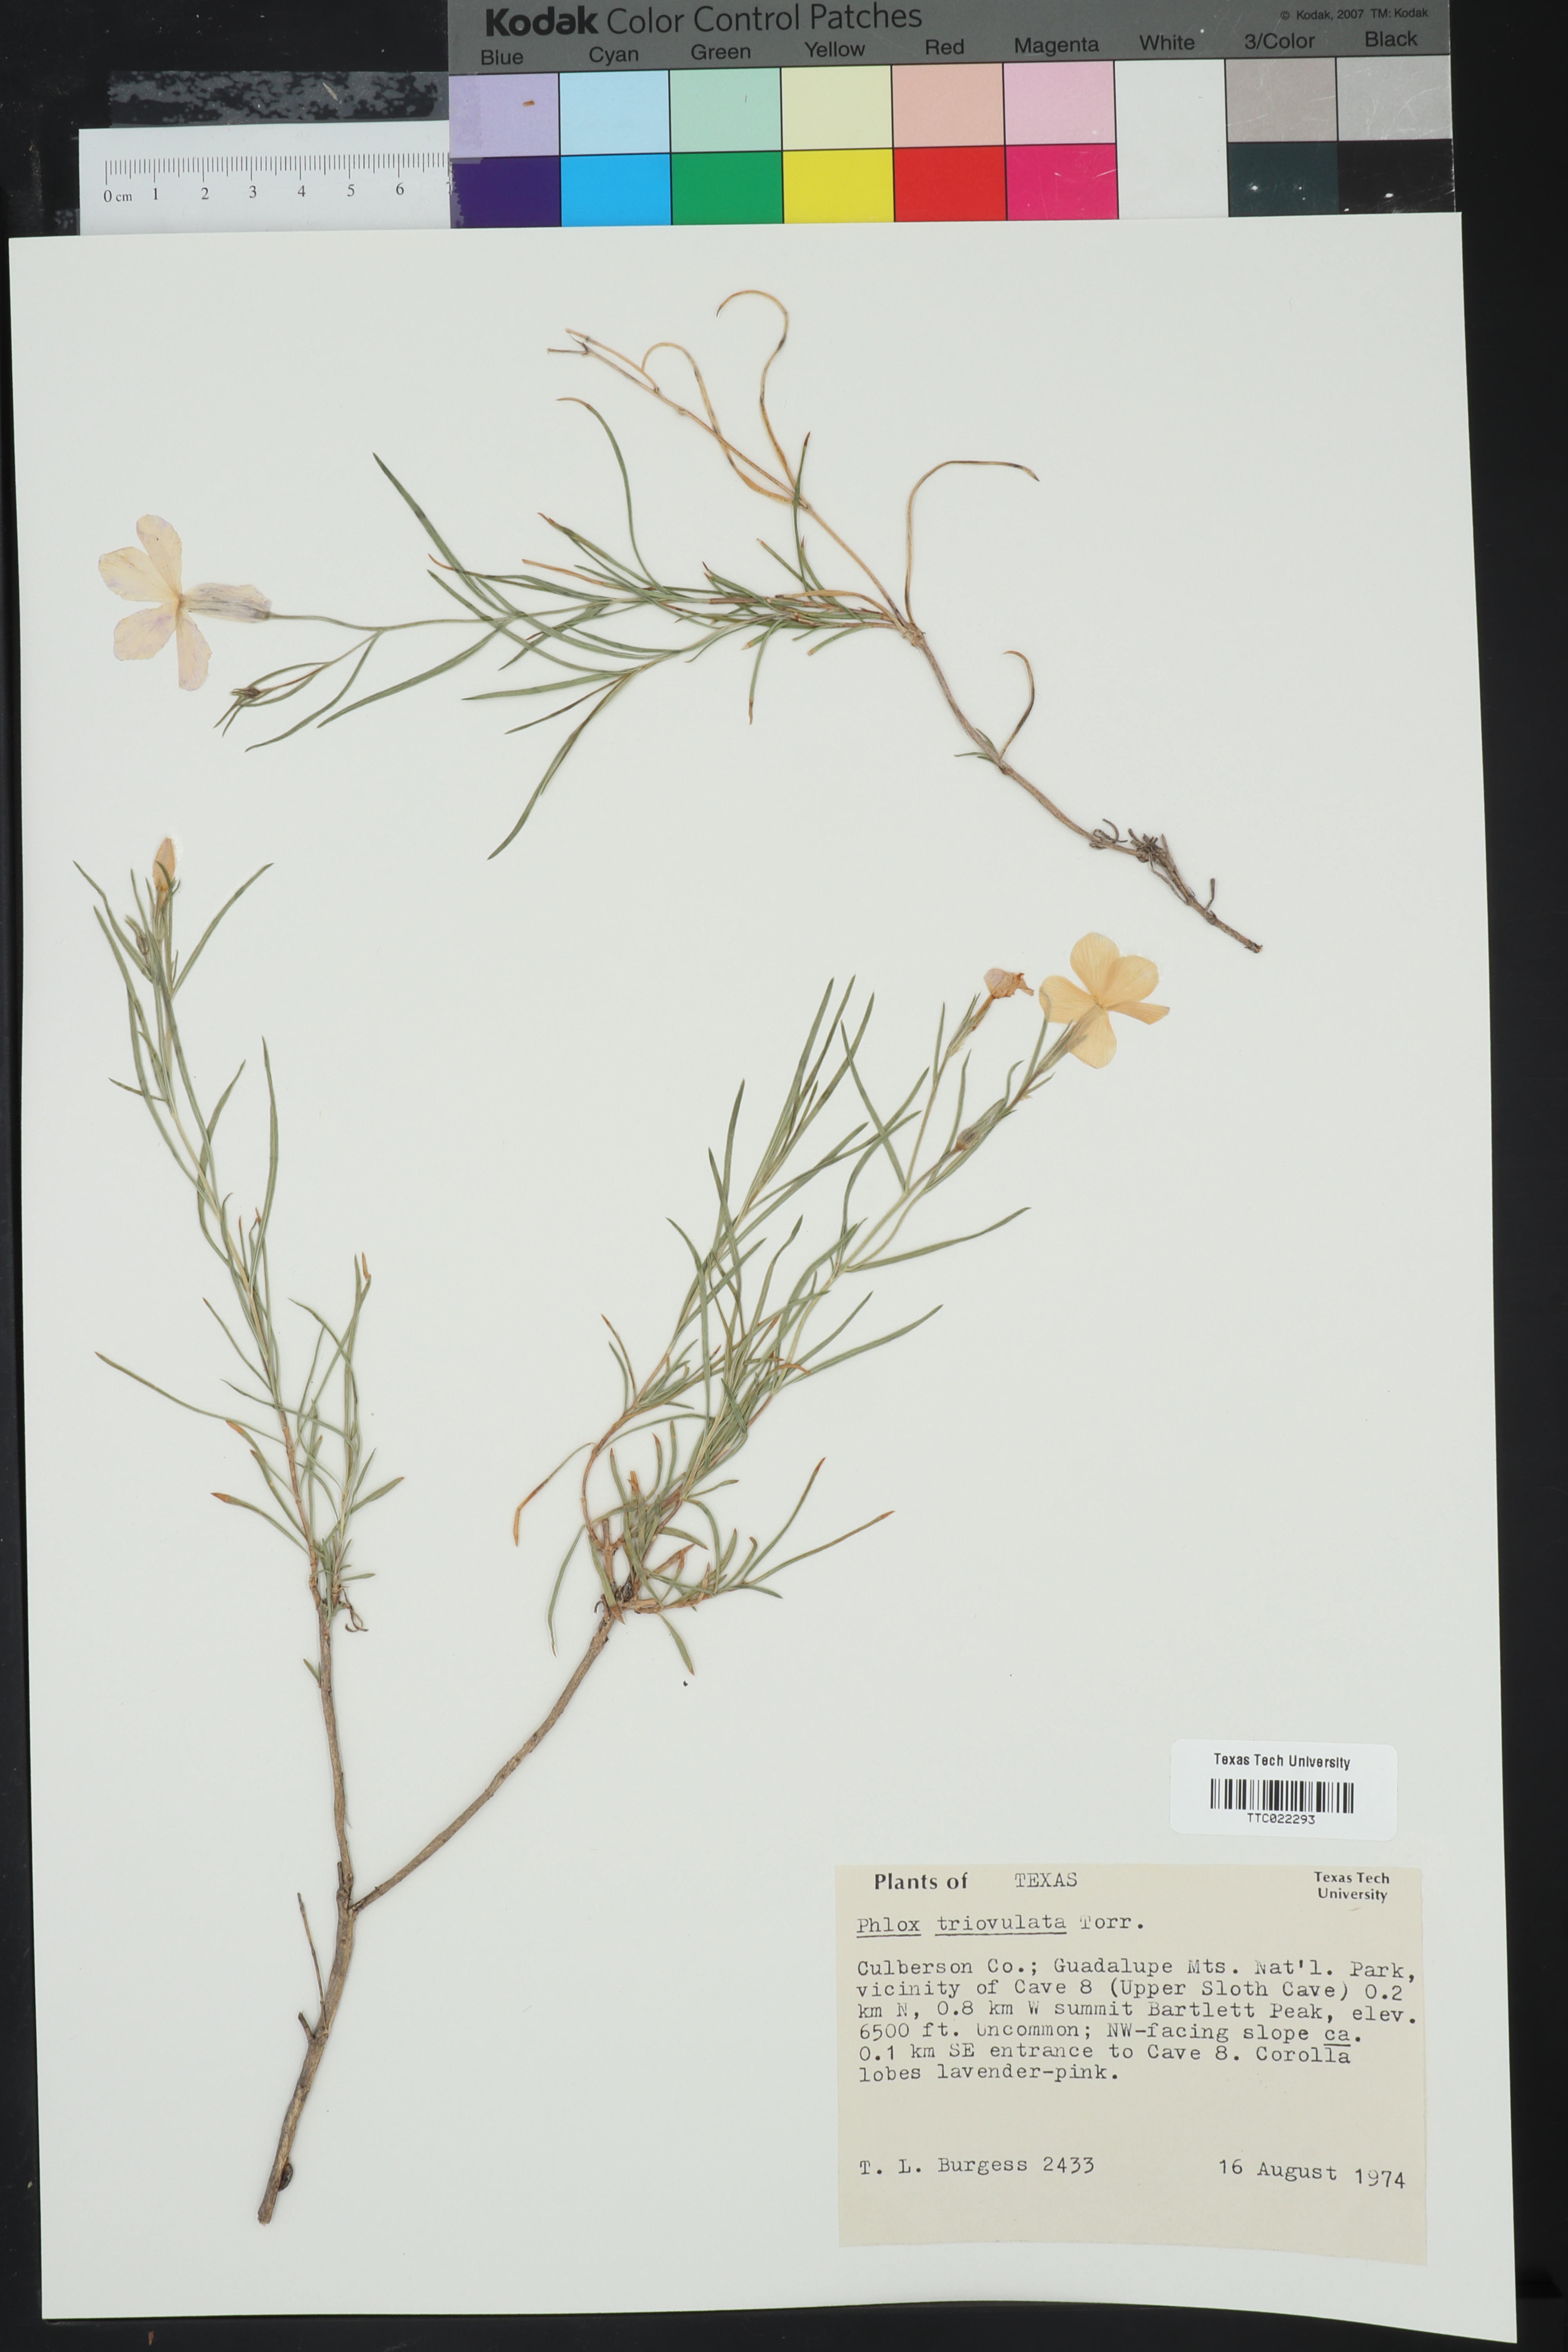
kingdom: Plantae
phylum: Tracheophyta
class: Magnoliopsida
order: Ericales
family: Polemoniaceae
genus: Phlox
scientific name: Phlox triovulata
